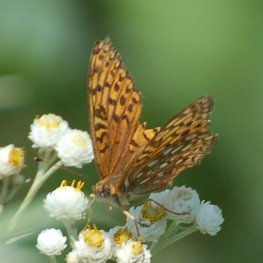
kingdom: Animalia
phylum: Arthropoda
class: Insecta
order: Lepidoptera
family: Nymphalidae
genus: Speyeria
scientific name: Speyeria atlantis
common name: Atlantis Fritillary
